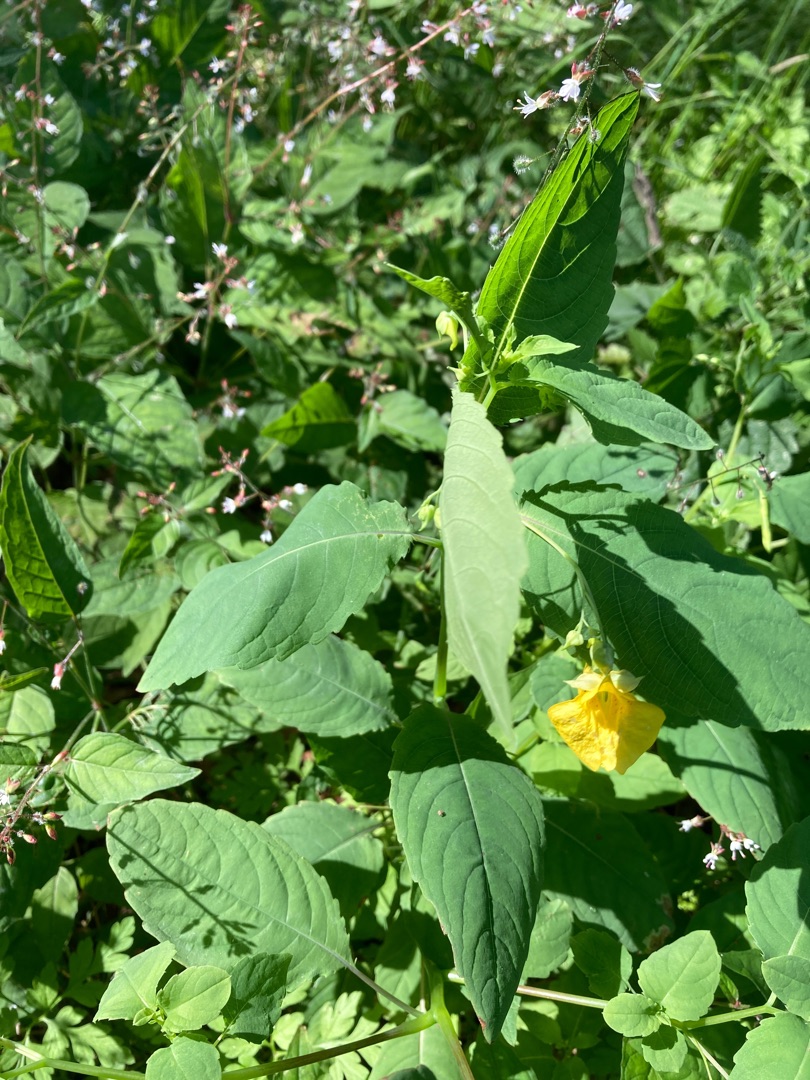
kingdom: Plantae
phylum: Tracheophyta
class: Magnoliopsida
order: Ericales
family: Balsaminaceae
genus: Impatiens
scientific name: Impatiens noli-tangere
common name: Spring-balsamin
